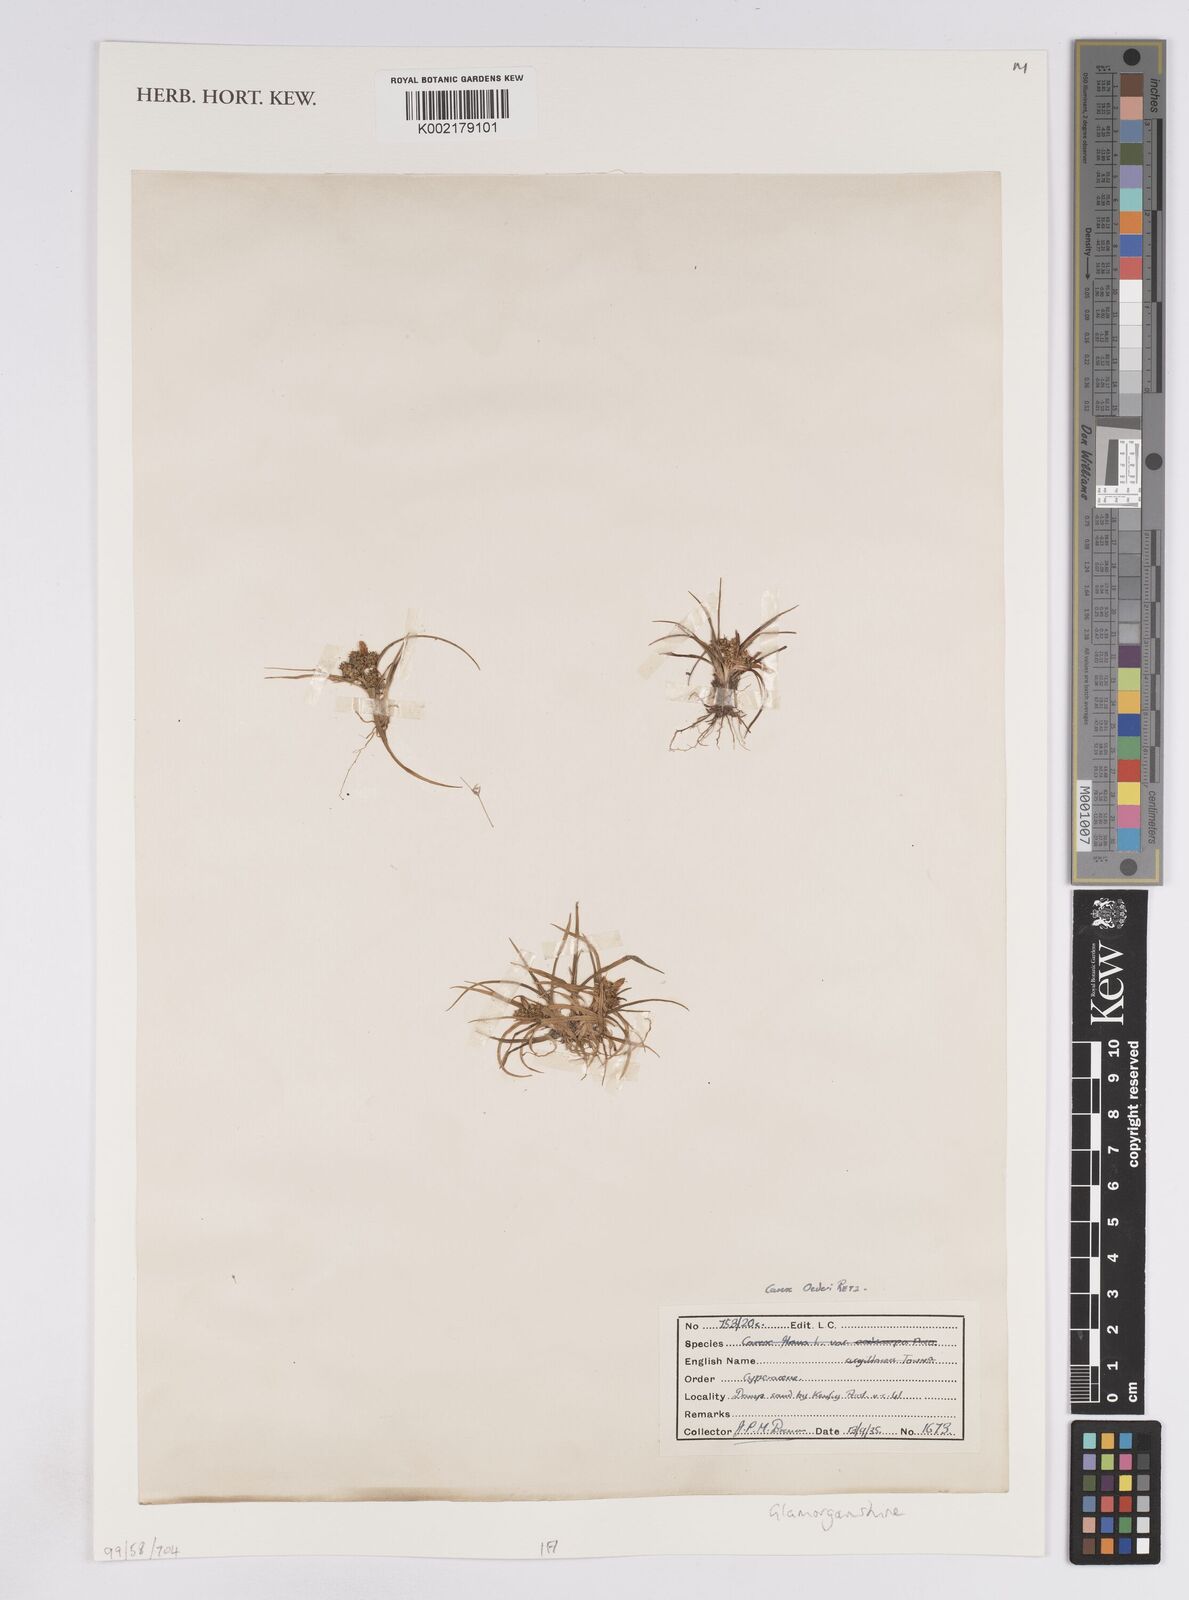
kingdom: Plantae
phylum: Tracheophyta
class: Liliopsida
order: Poales
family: Cyperaceae
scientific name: Cyperaceae
